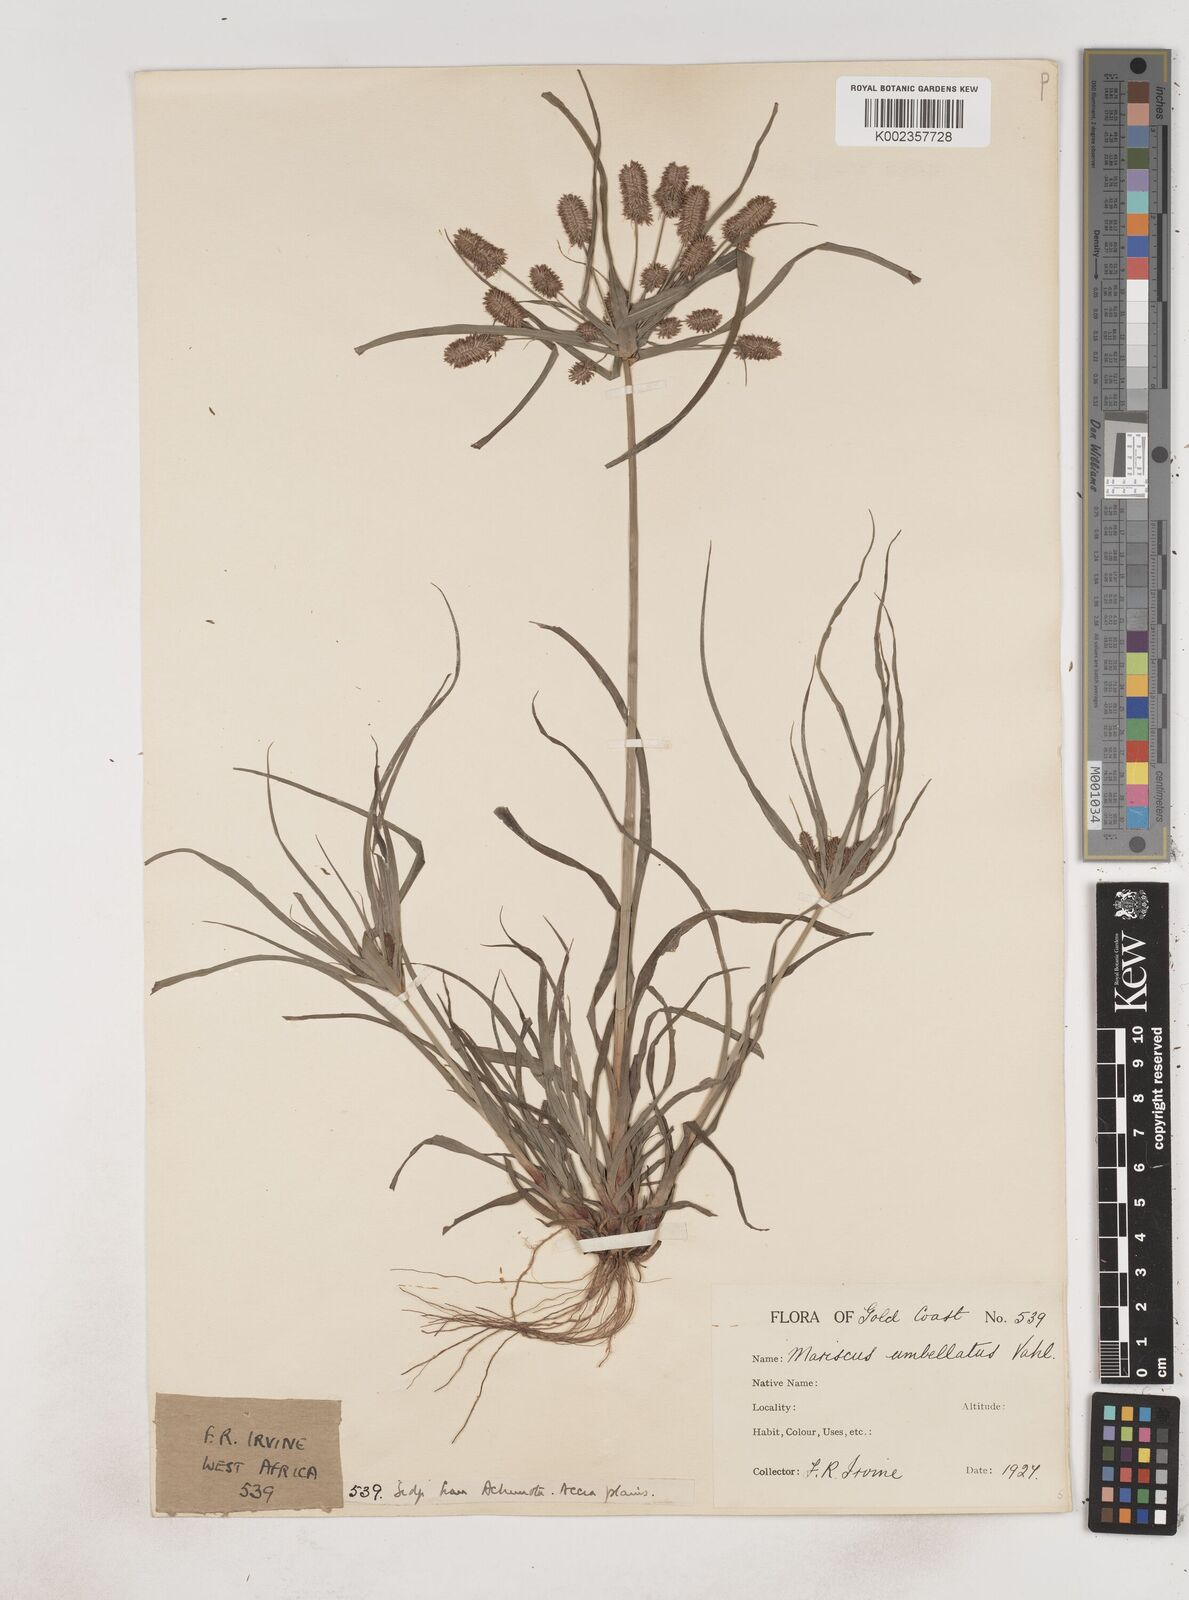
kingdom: Plantae
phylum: Tracheophyta
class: Liliopsida
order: Poales
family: Cyperaceae
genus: Cyperus
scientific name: Cyperus cyperoides
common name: Pacific island flat sedge
